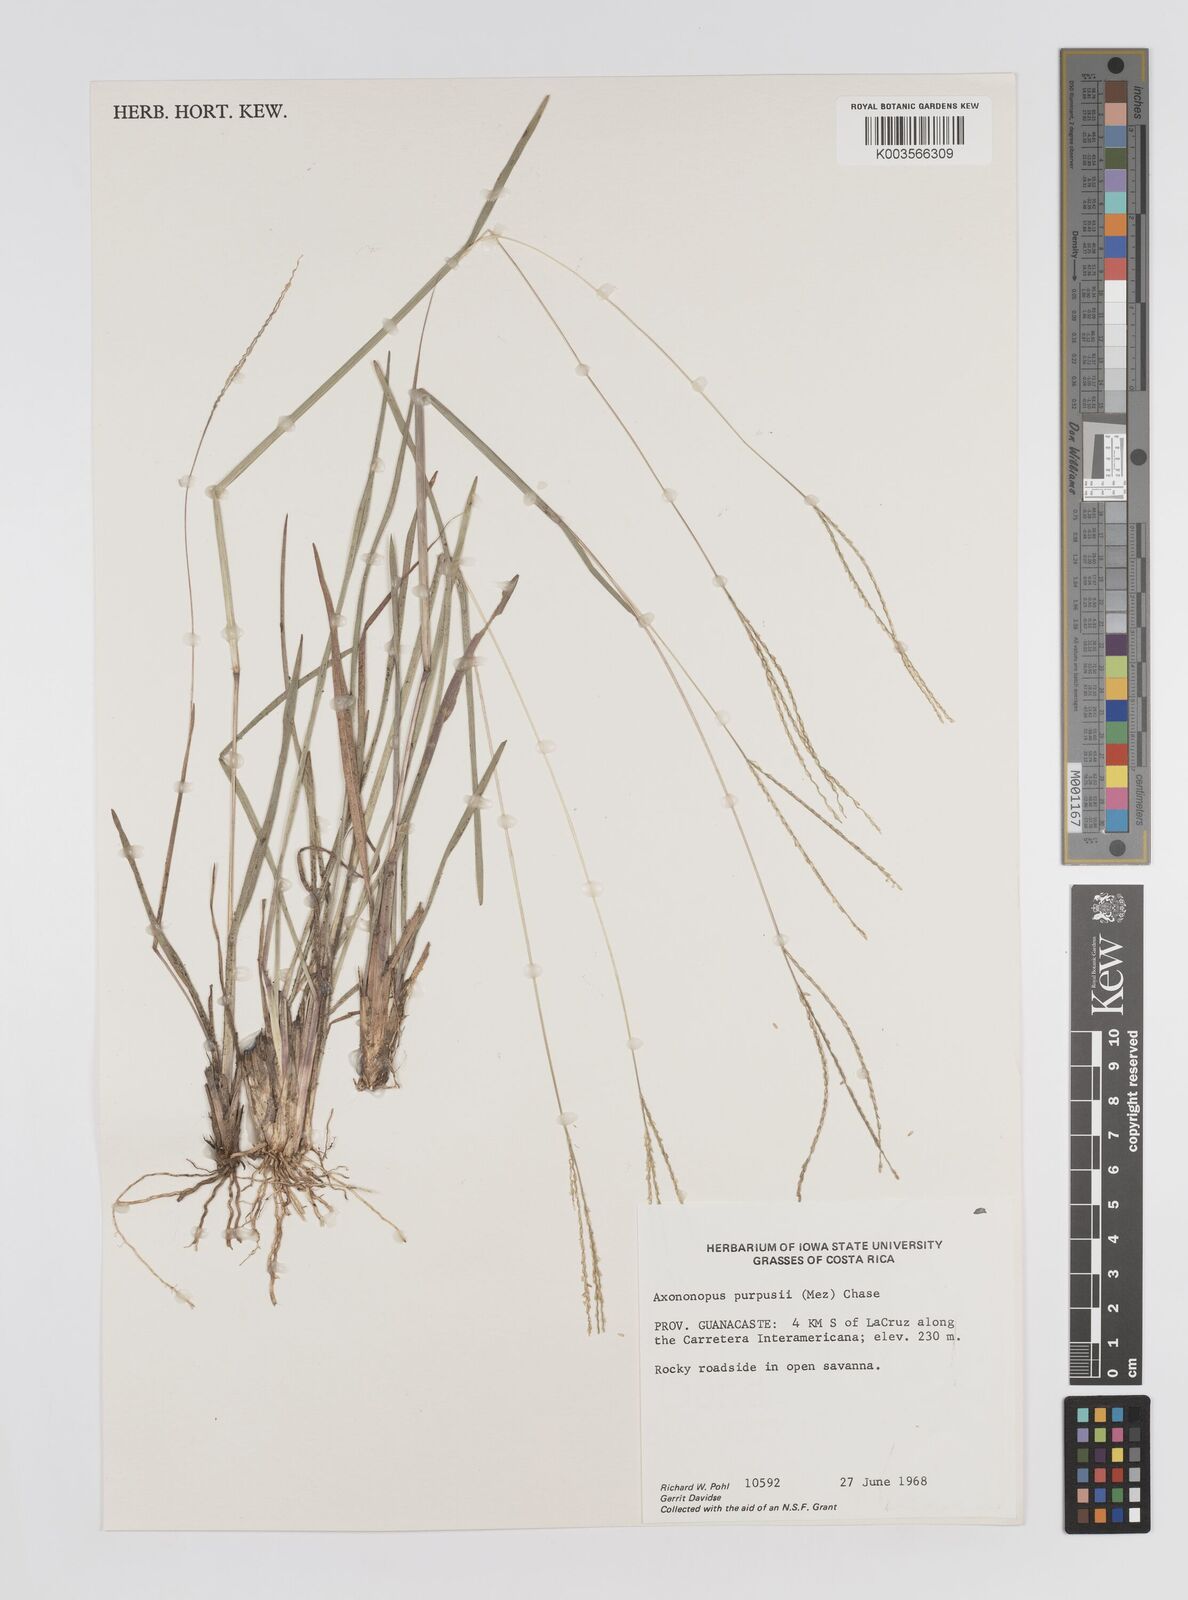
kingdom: Plantae
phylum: Tracheophyta
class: Liliopsida
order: Poales
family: Poaceae
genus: Axonopus
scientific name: Axonopus purpusii
